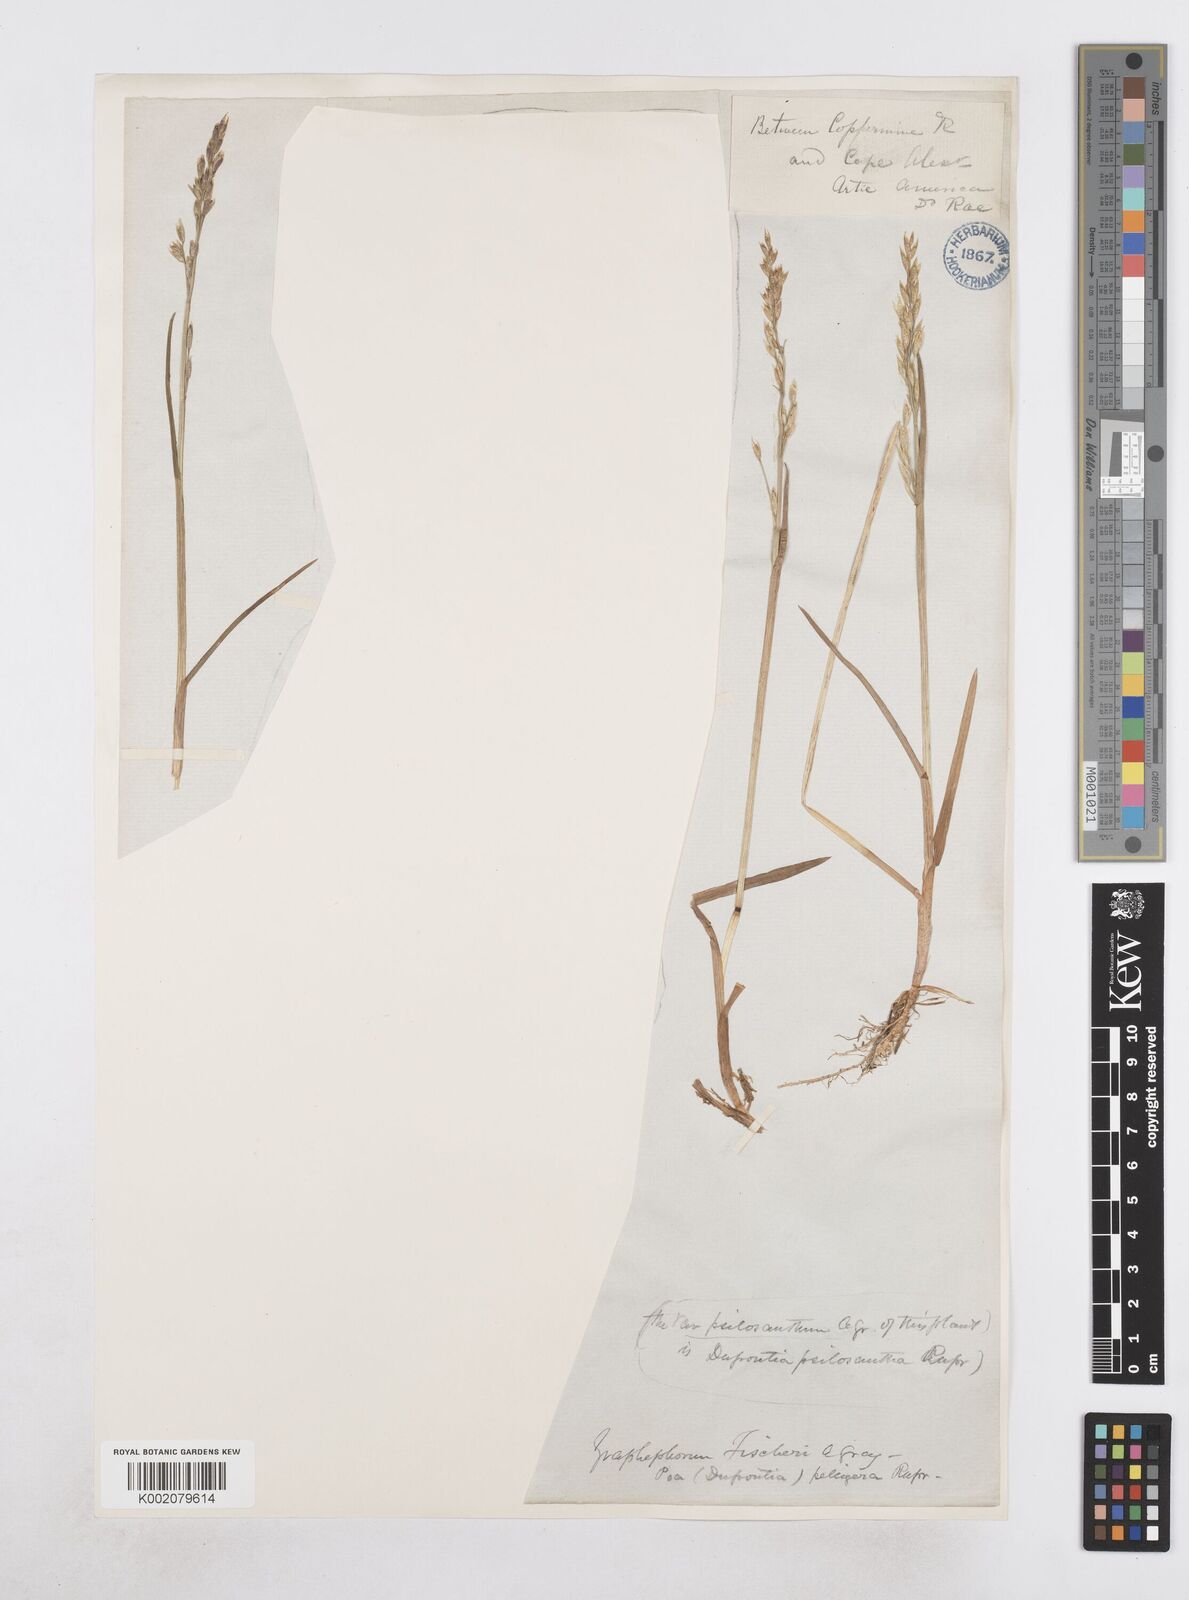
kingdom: Plantae
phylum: Tracheophyta
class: Liliopsida
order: Poales
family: Poaceae
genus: Dupontia
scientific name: Dupontia fisheri
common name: Tundra grass
